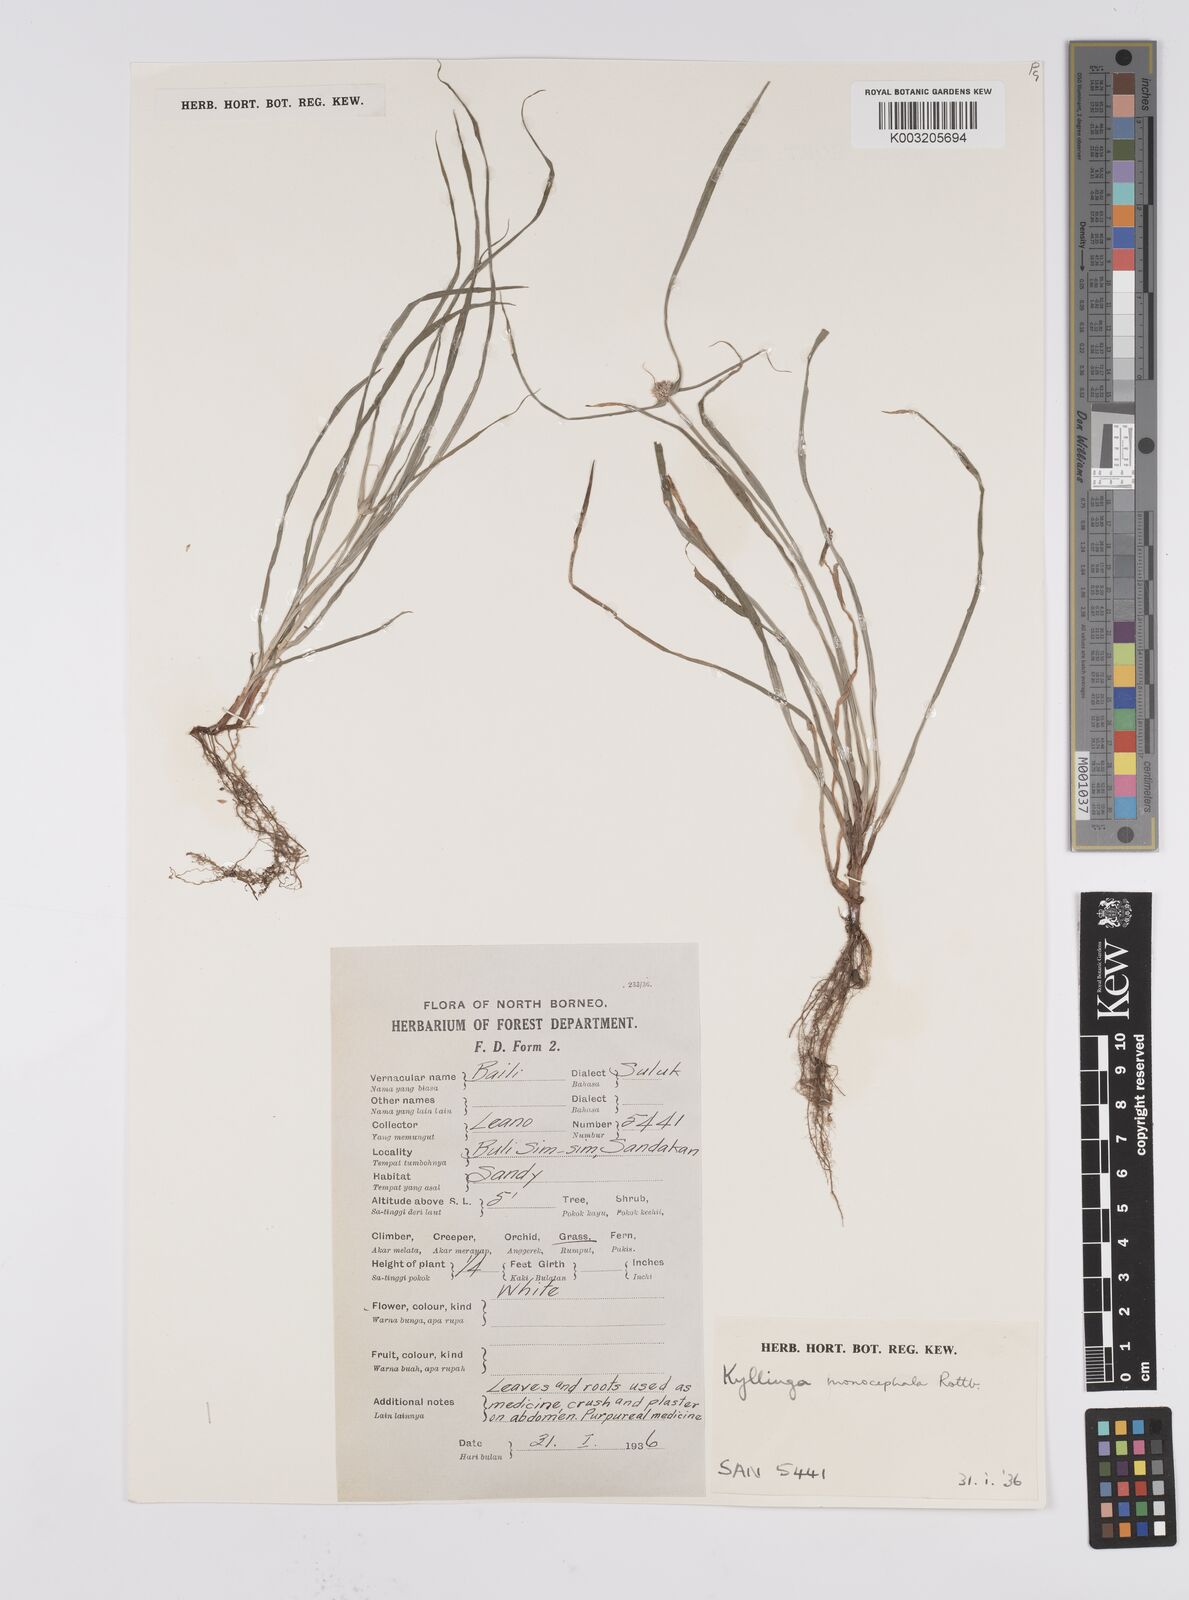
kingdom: Plantae
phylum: Tracheophyta
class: Liliopsida
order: Poales
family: Cyperaceae
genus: Cyperus
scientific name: Cyperus nemoralis
